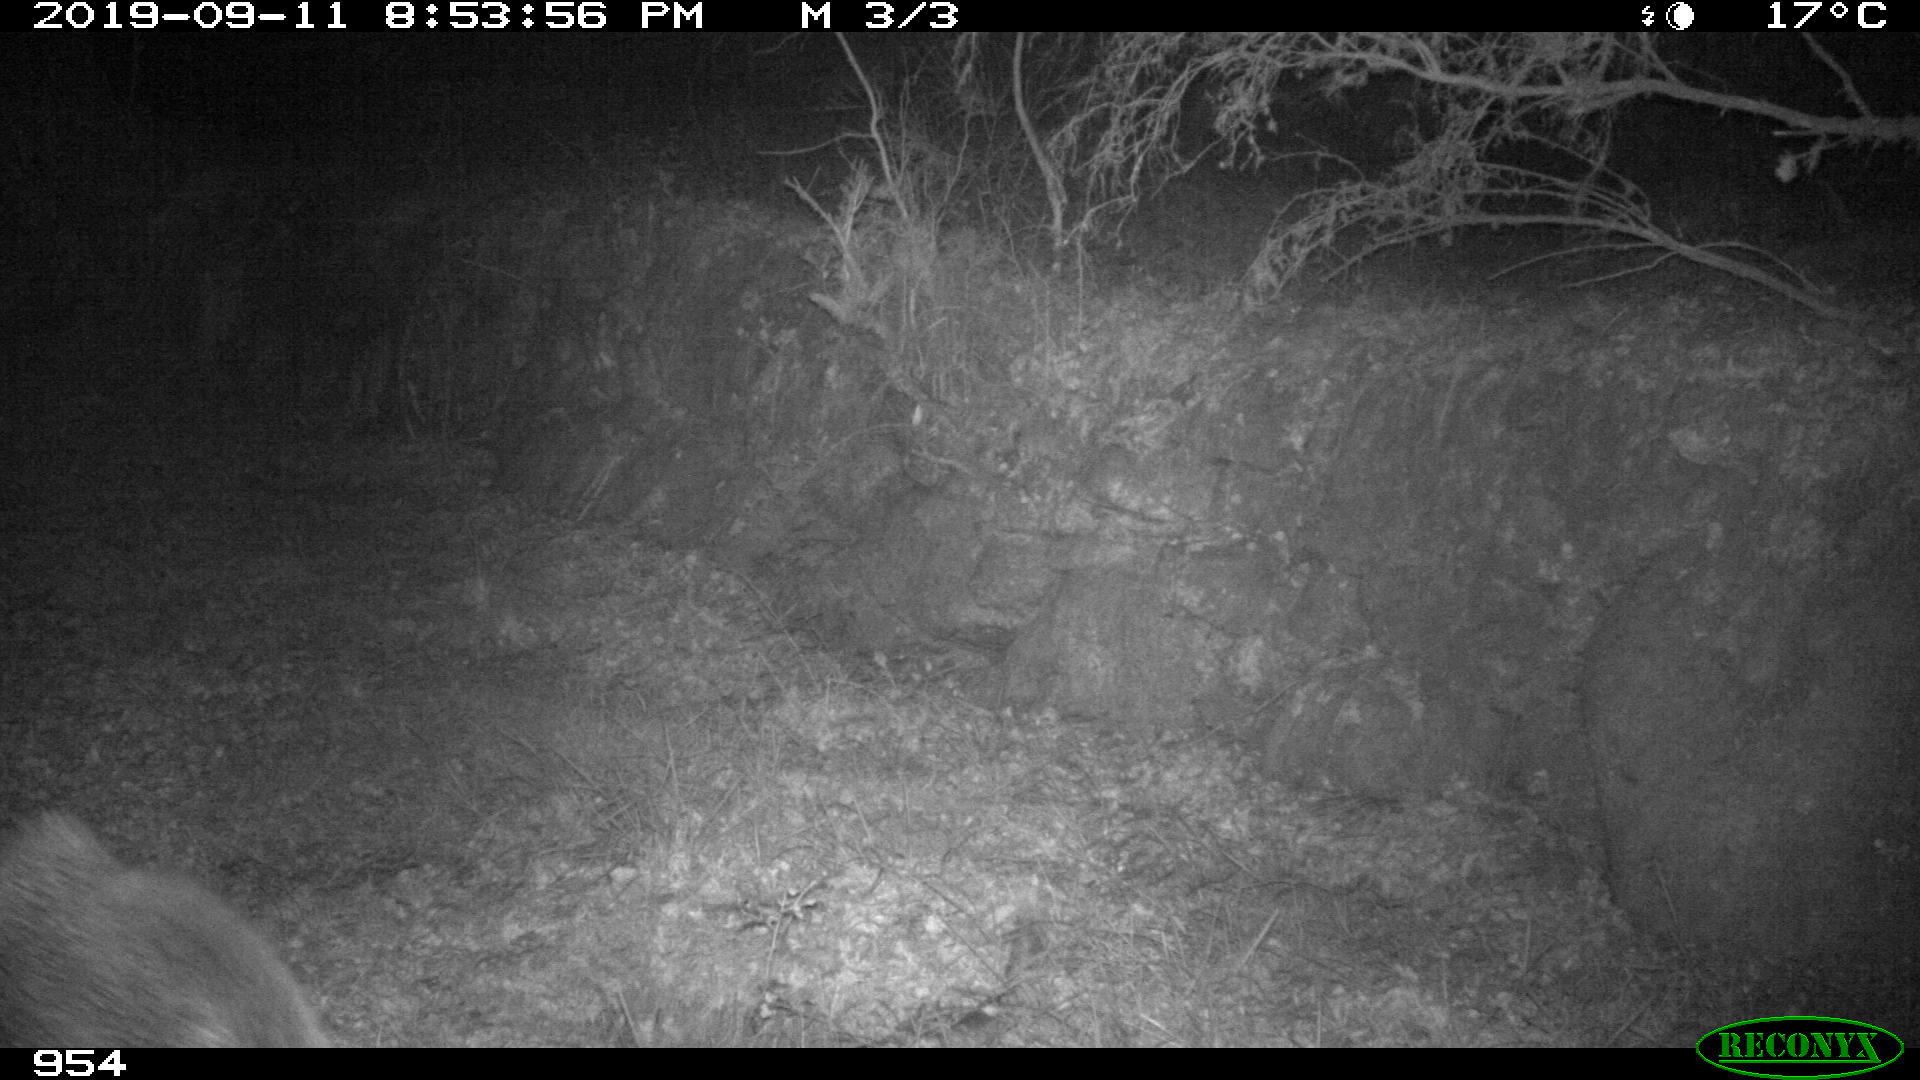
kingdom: Animalia
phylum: Chordata
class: Mammalia
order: Artiodactyla
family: Suidae
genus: Sus
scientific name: Sus scrofa
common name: Wild boar
